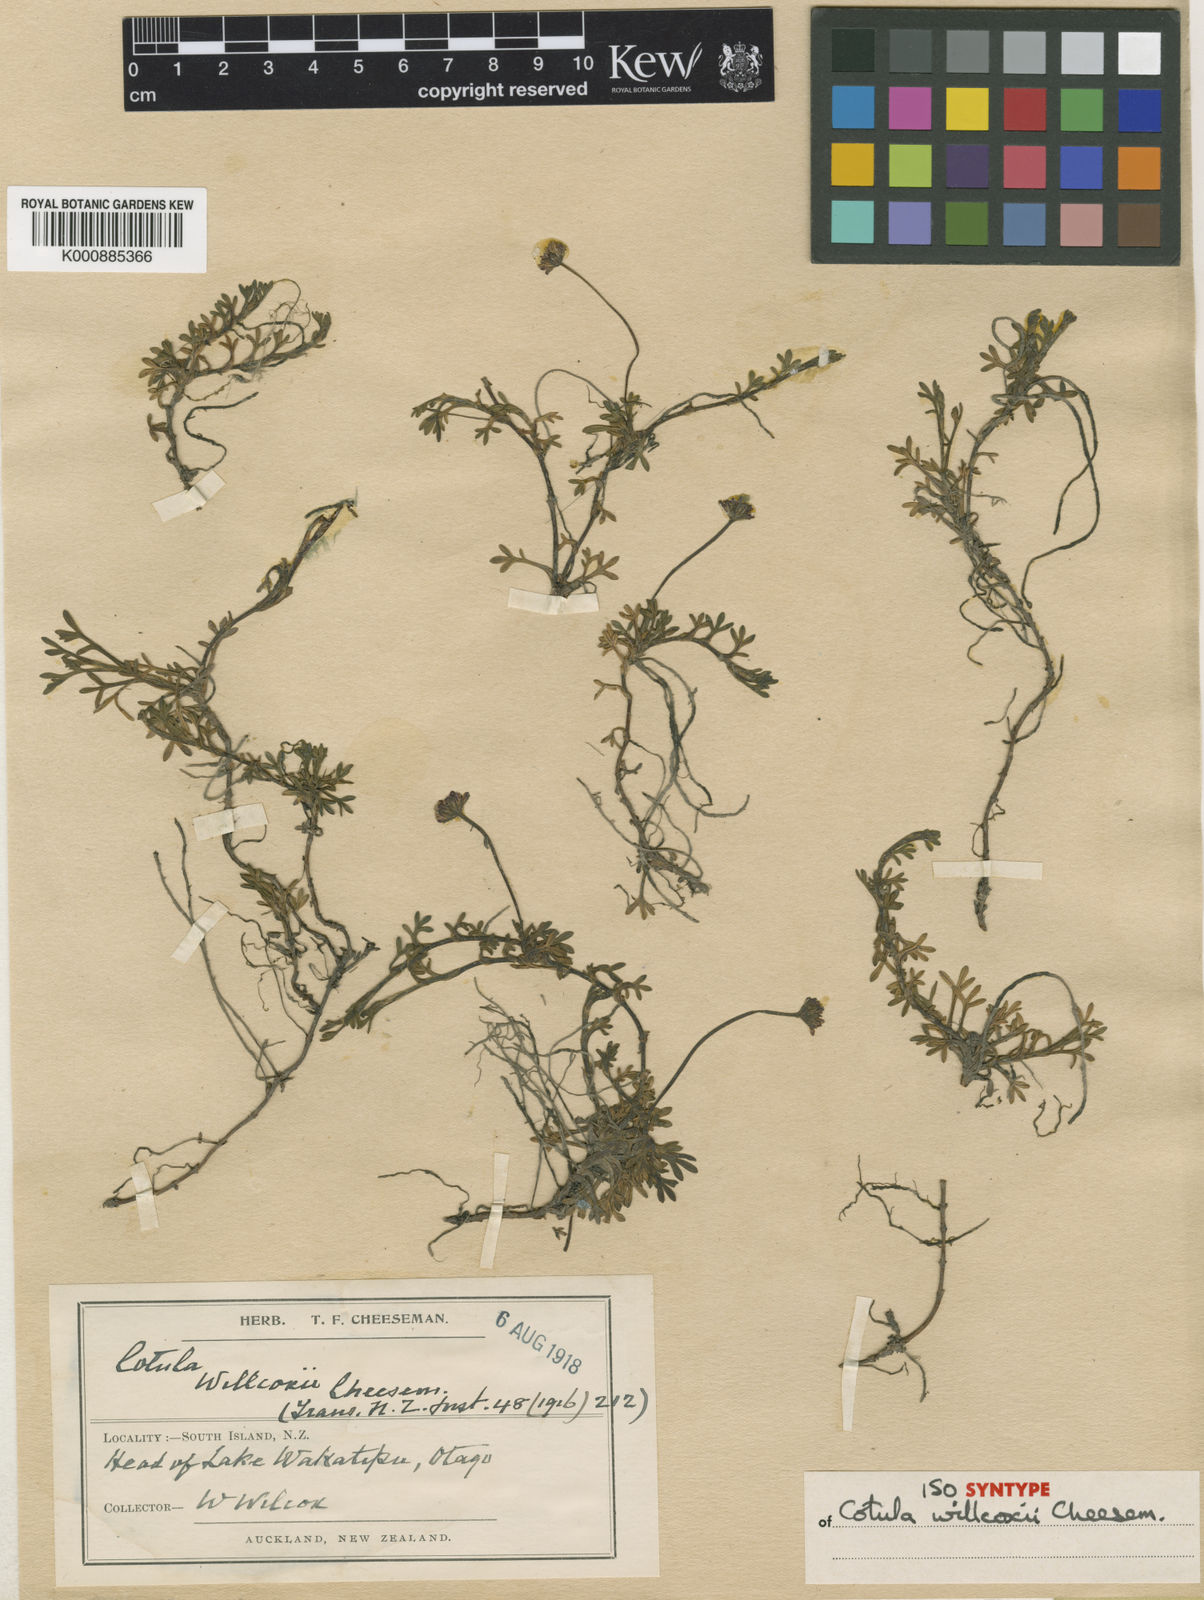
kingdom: Plantae
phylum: Tracheophyta
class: Magnoliopsida
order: Asterales
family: Asteraceae
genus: Leptinella
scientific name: Leptinella
